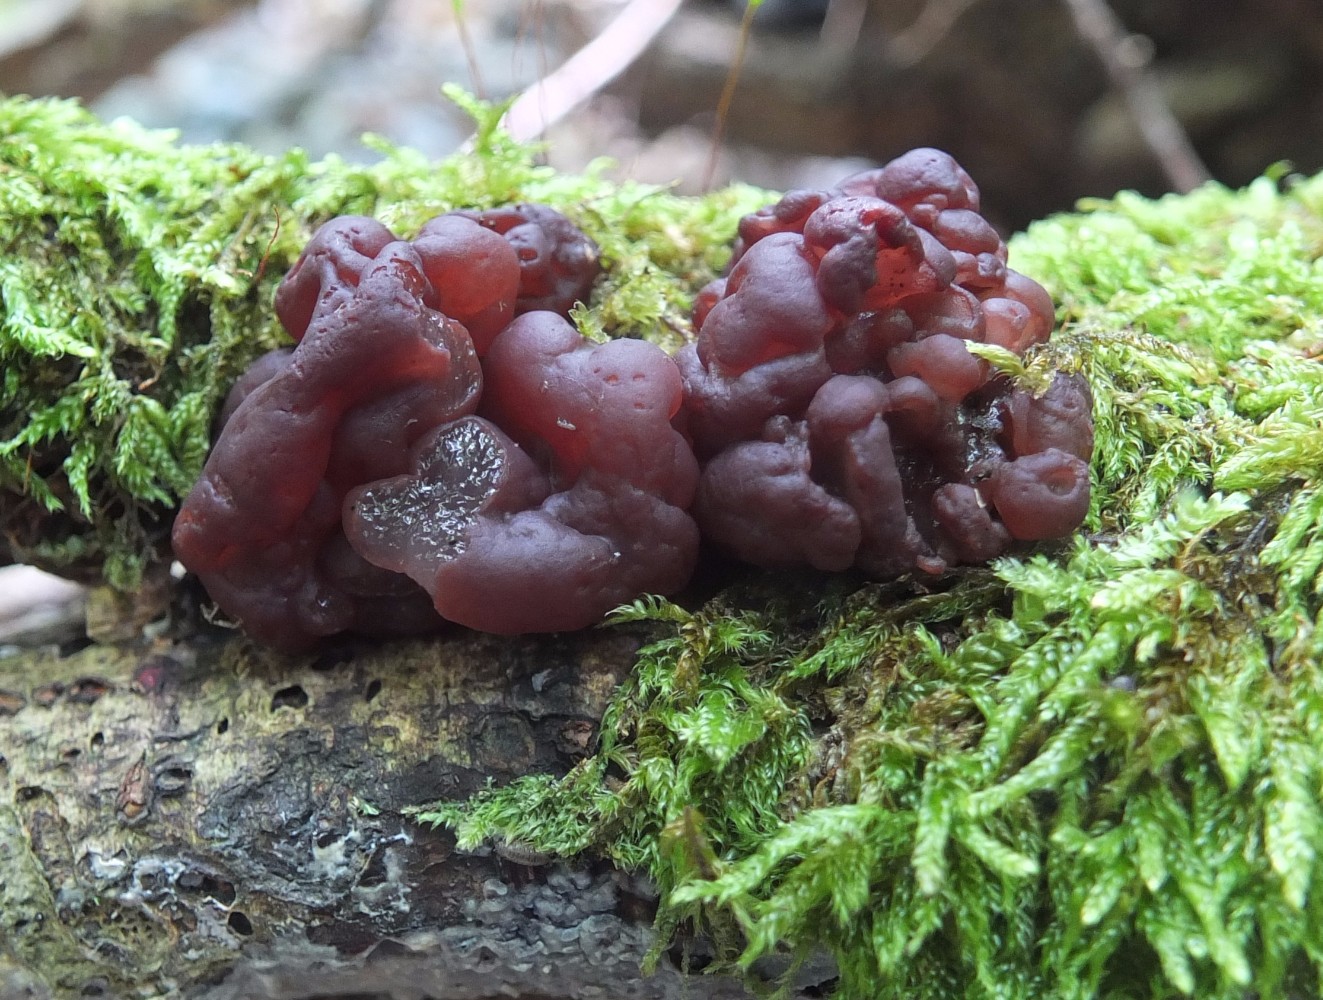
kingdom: Fungi
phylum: Ascomycota
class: Leotiomycetes
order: Helotiales
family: Gelatinodiscaceae
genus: Ascotremella
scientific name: Ascotremella faginea
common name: hjerne-bævreskive
